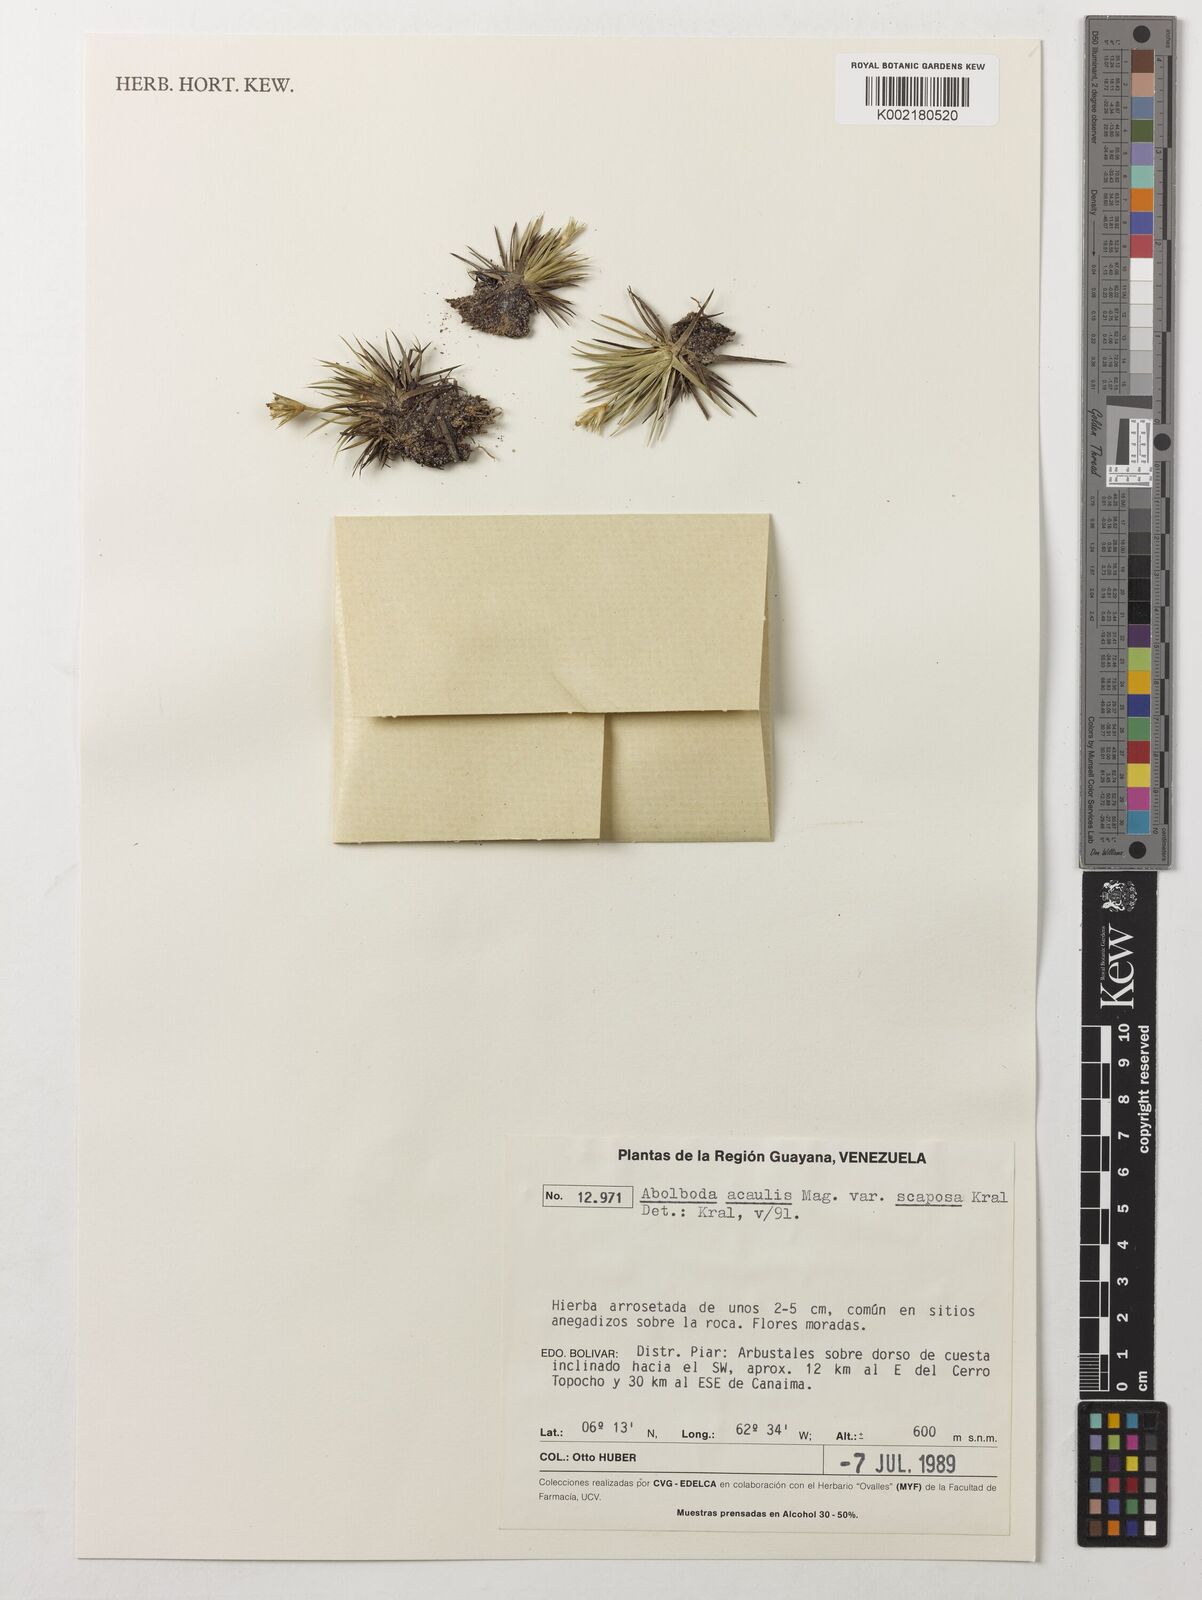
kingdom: Plantae
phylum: Tracheophyta
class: Liliopsida
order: Poales
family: Xyridaceae
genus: Abolboda
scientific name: Abolboda acaulis
